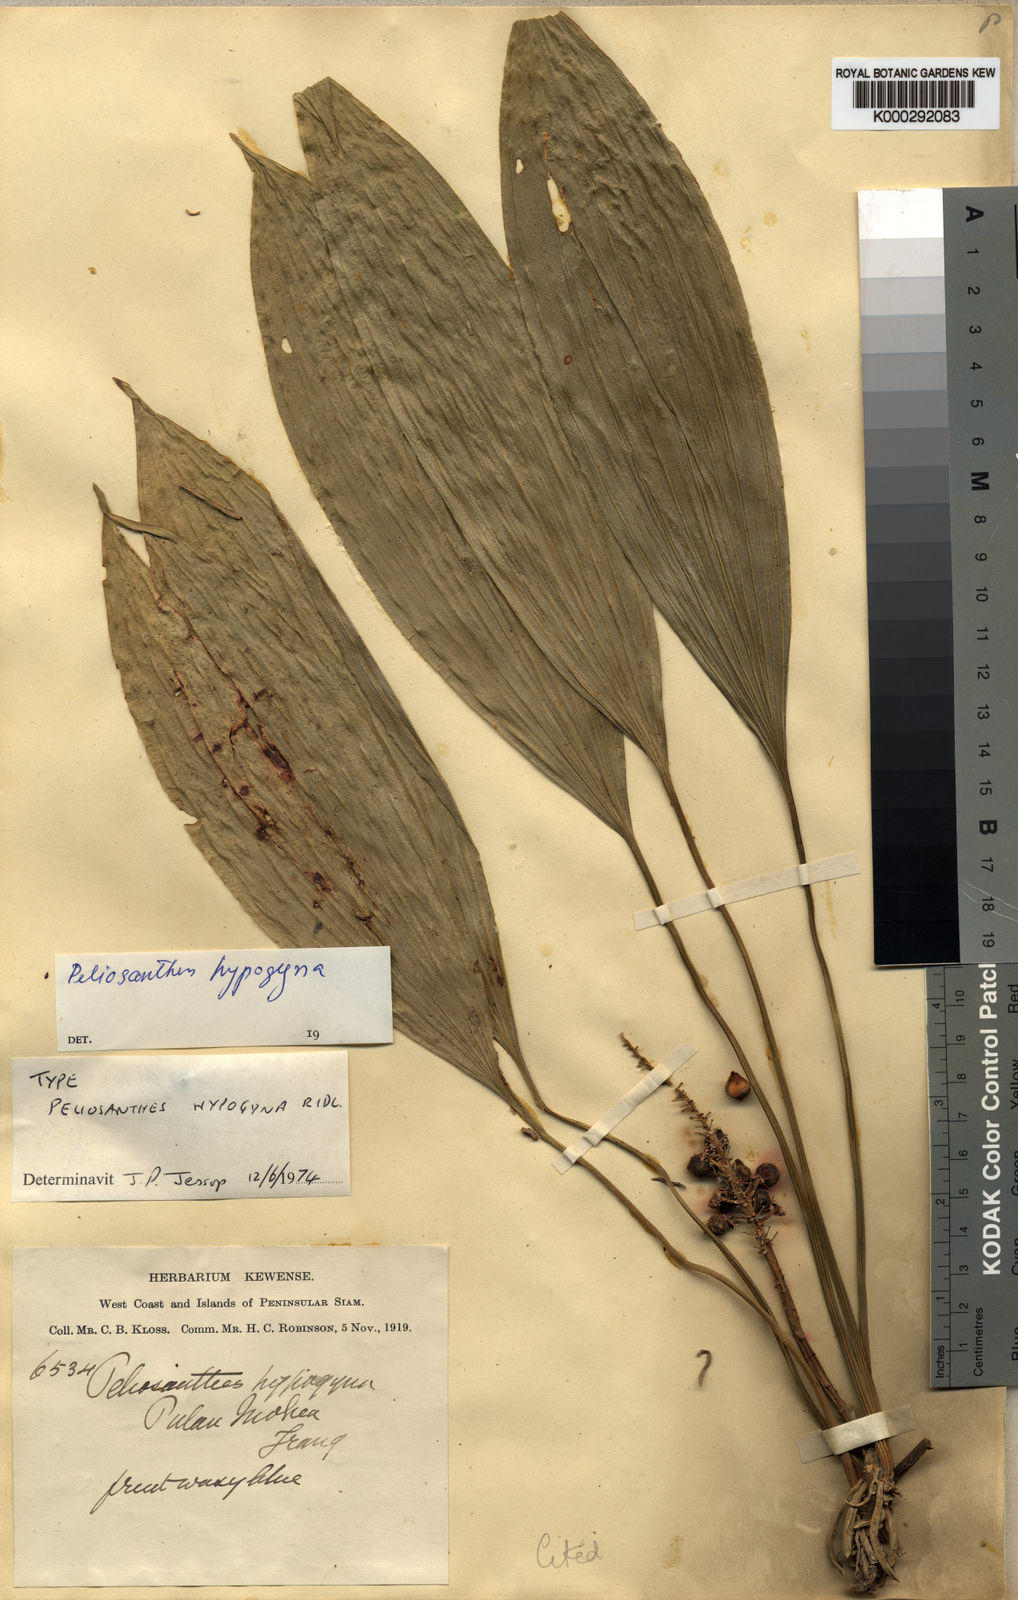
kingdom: Plantae
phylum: Tracheophyta
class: Liliopsida
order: Asparagales
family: Asparagaceae
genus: Peliosanthes
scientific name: Peliosanthes teta
